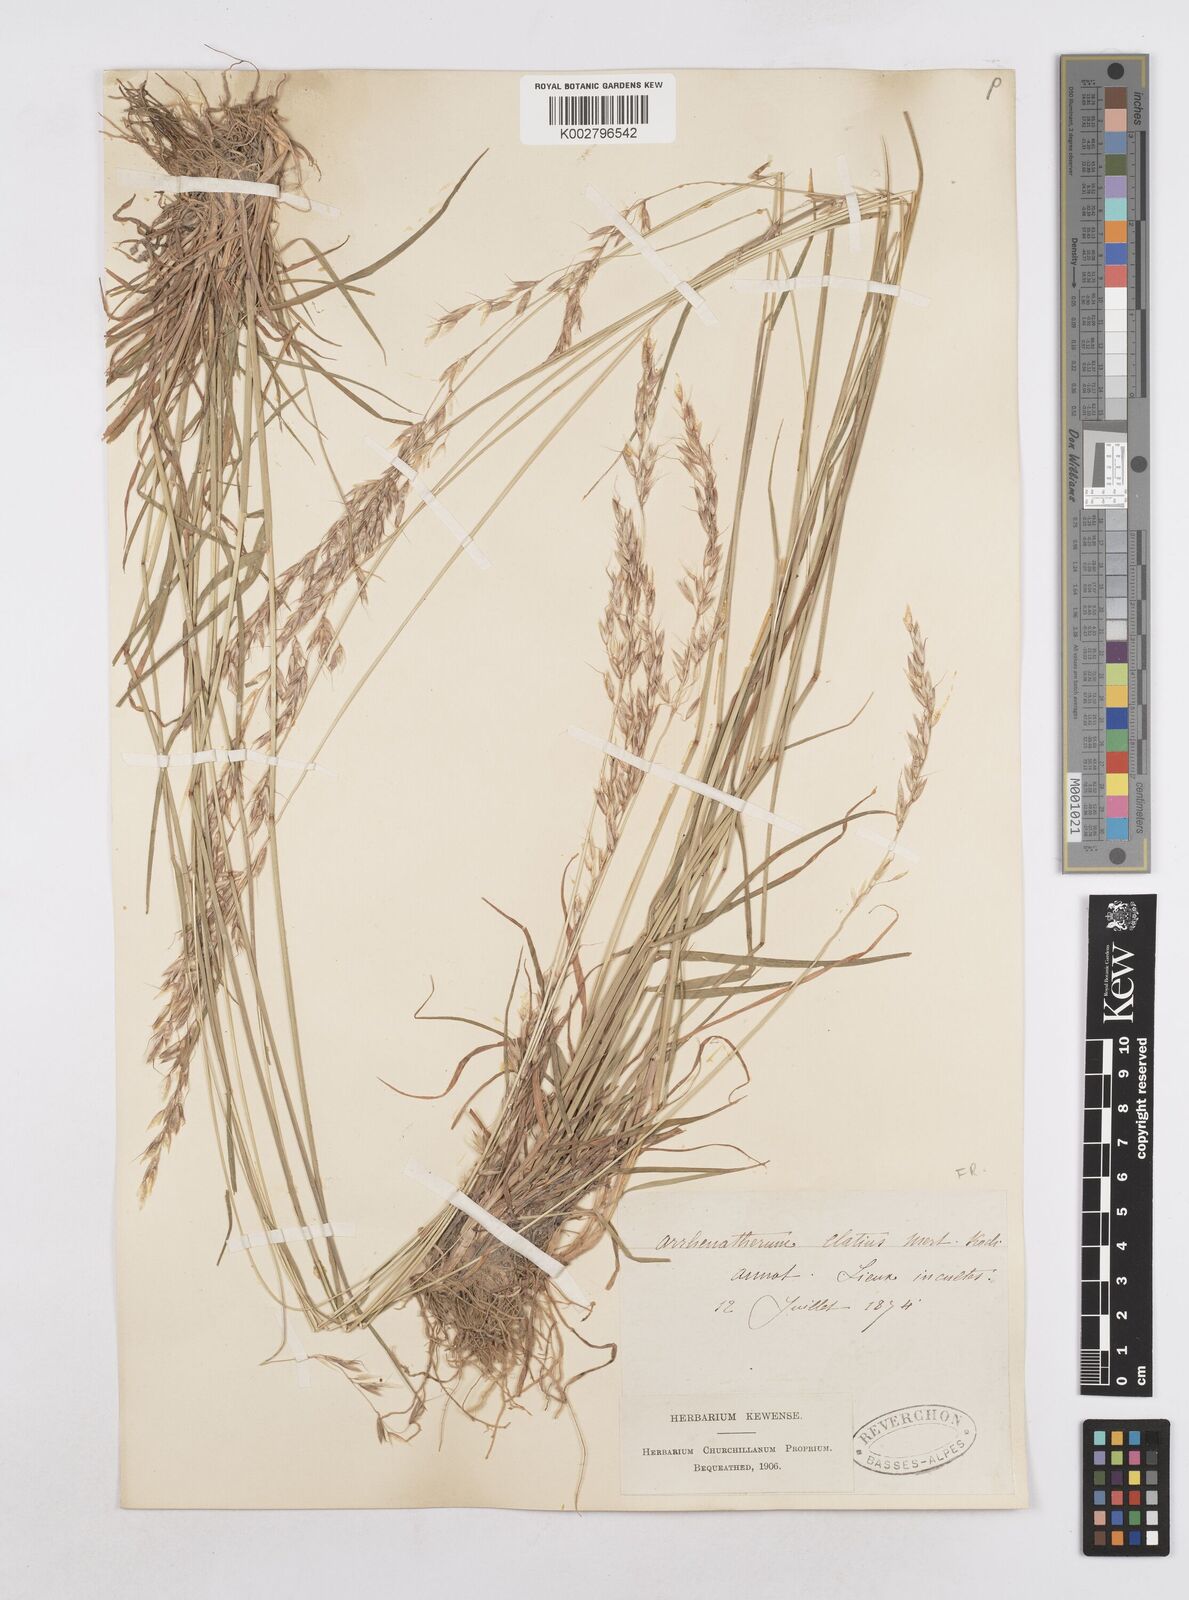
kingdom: Plantae
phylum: Tracheophyta
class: Liliopsida
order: Poales
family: Poaceae
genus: Arrhenatherum
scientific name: Arrhenatherum elatius
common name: Tall oatgrass
